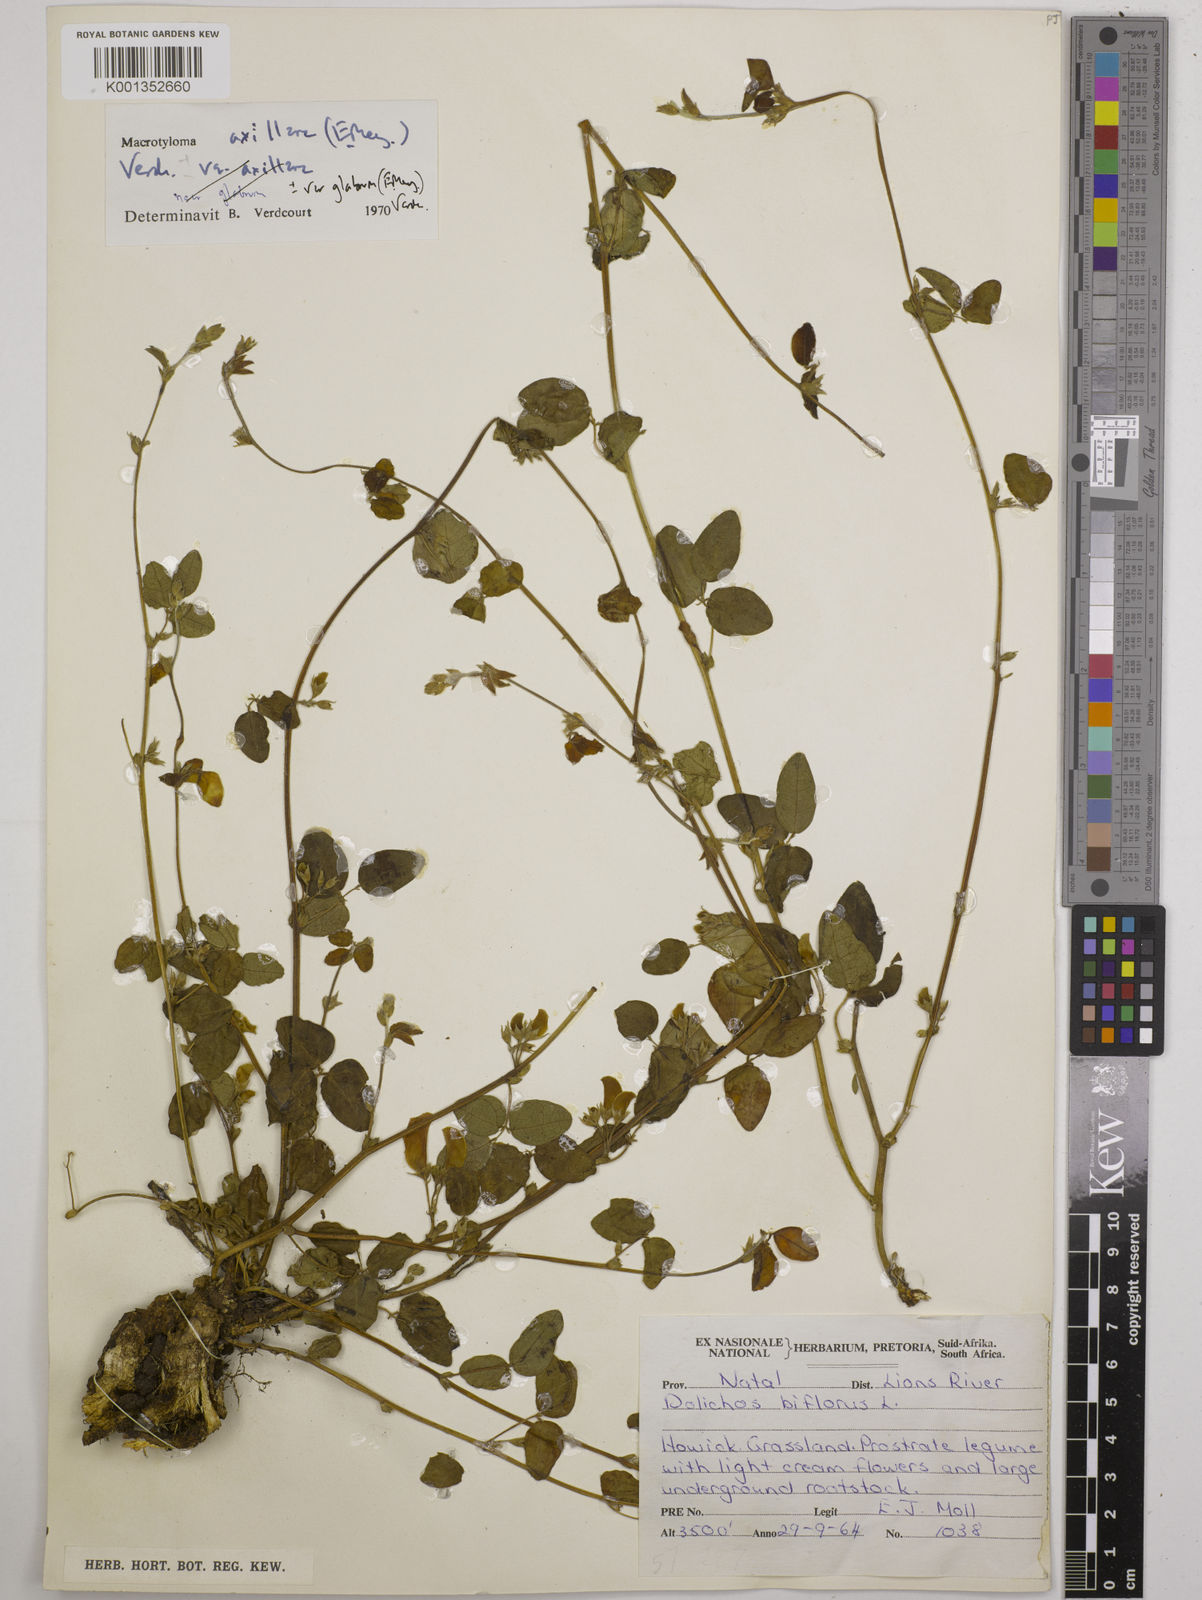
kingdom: Plantae
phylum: Tracheophyta
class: Magnoliopsida
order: Fabales
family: Fabaceae
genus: Macrotyloma
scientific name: Macrotyloma axillare
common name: Perennial horsegram
